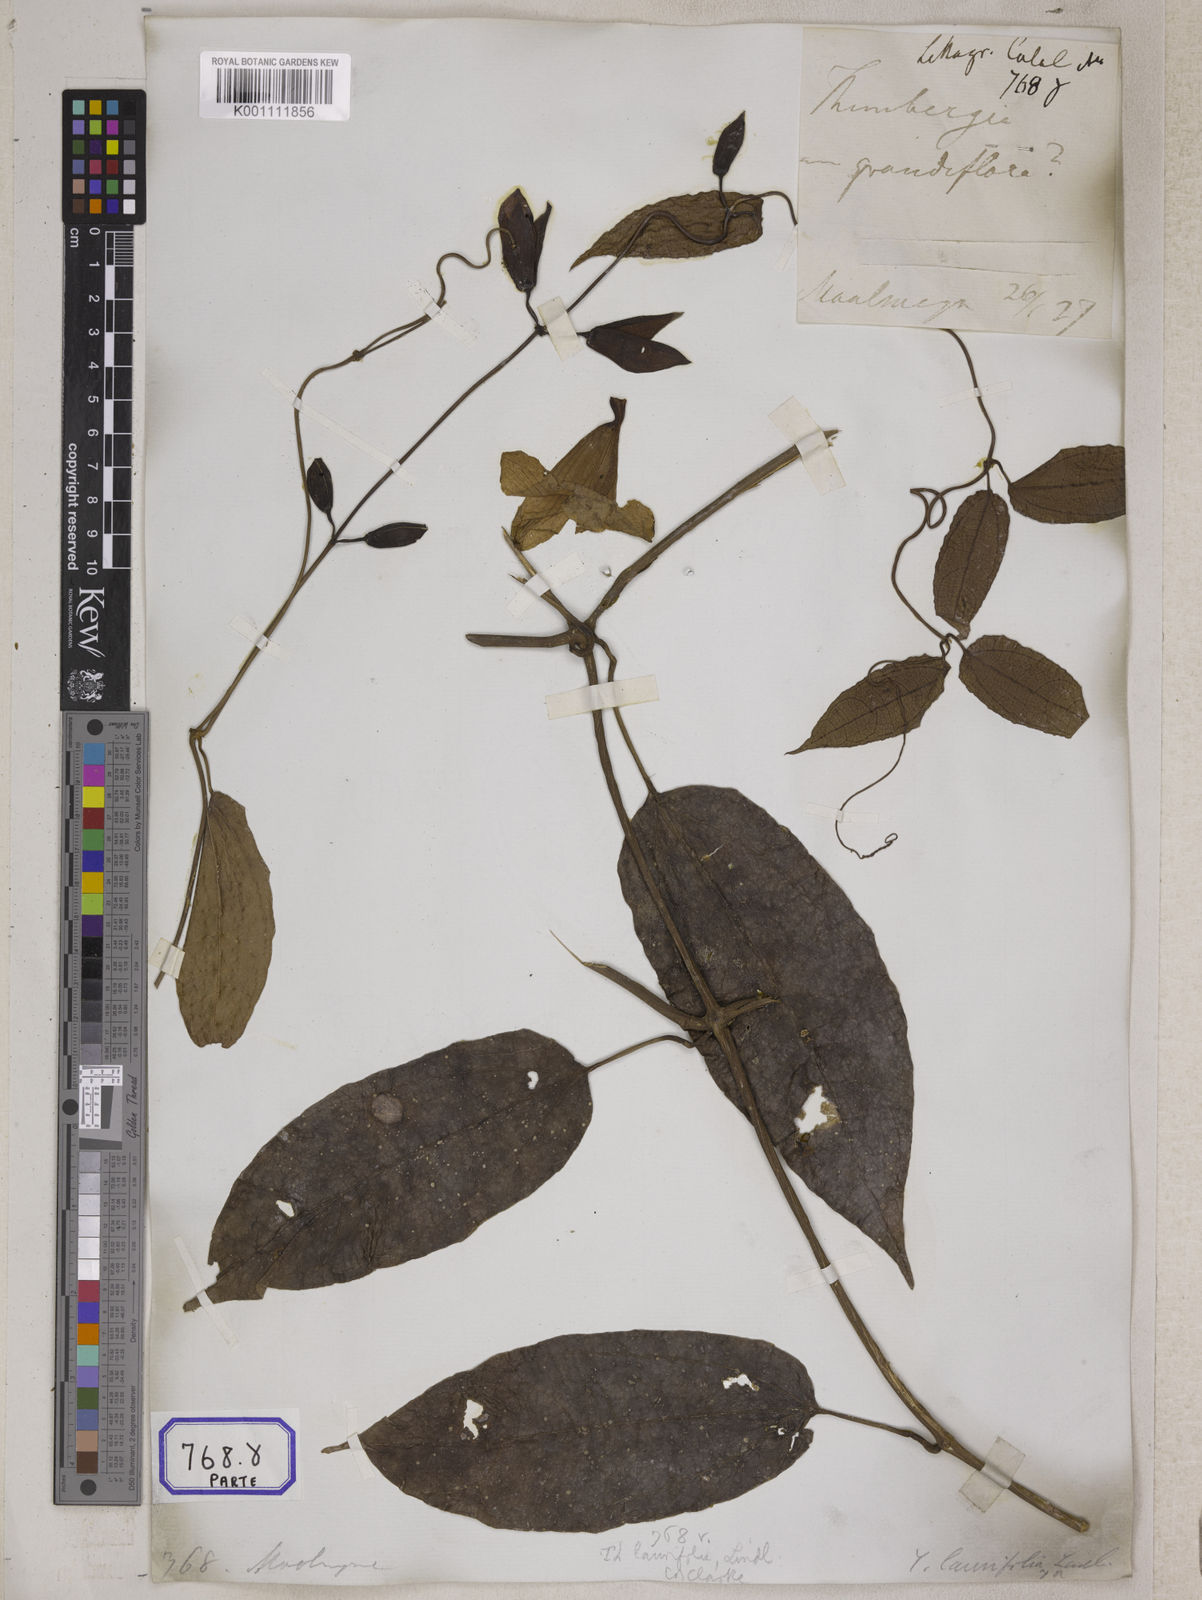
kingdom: Plantae
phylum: Tracheophyta
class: Magnoliopsida
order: Lamiales
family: Acanthaceae
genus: Thunbergia
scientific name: Thunbergia
